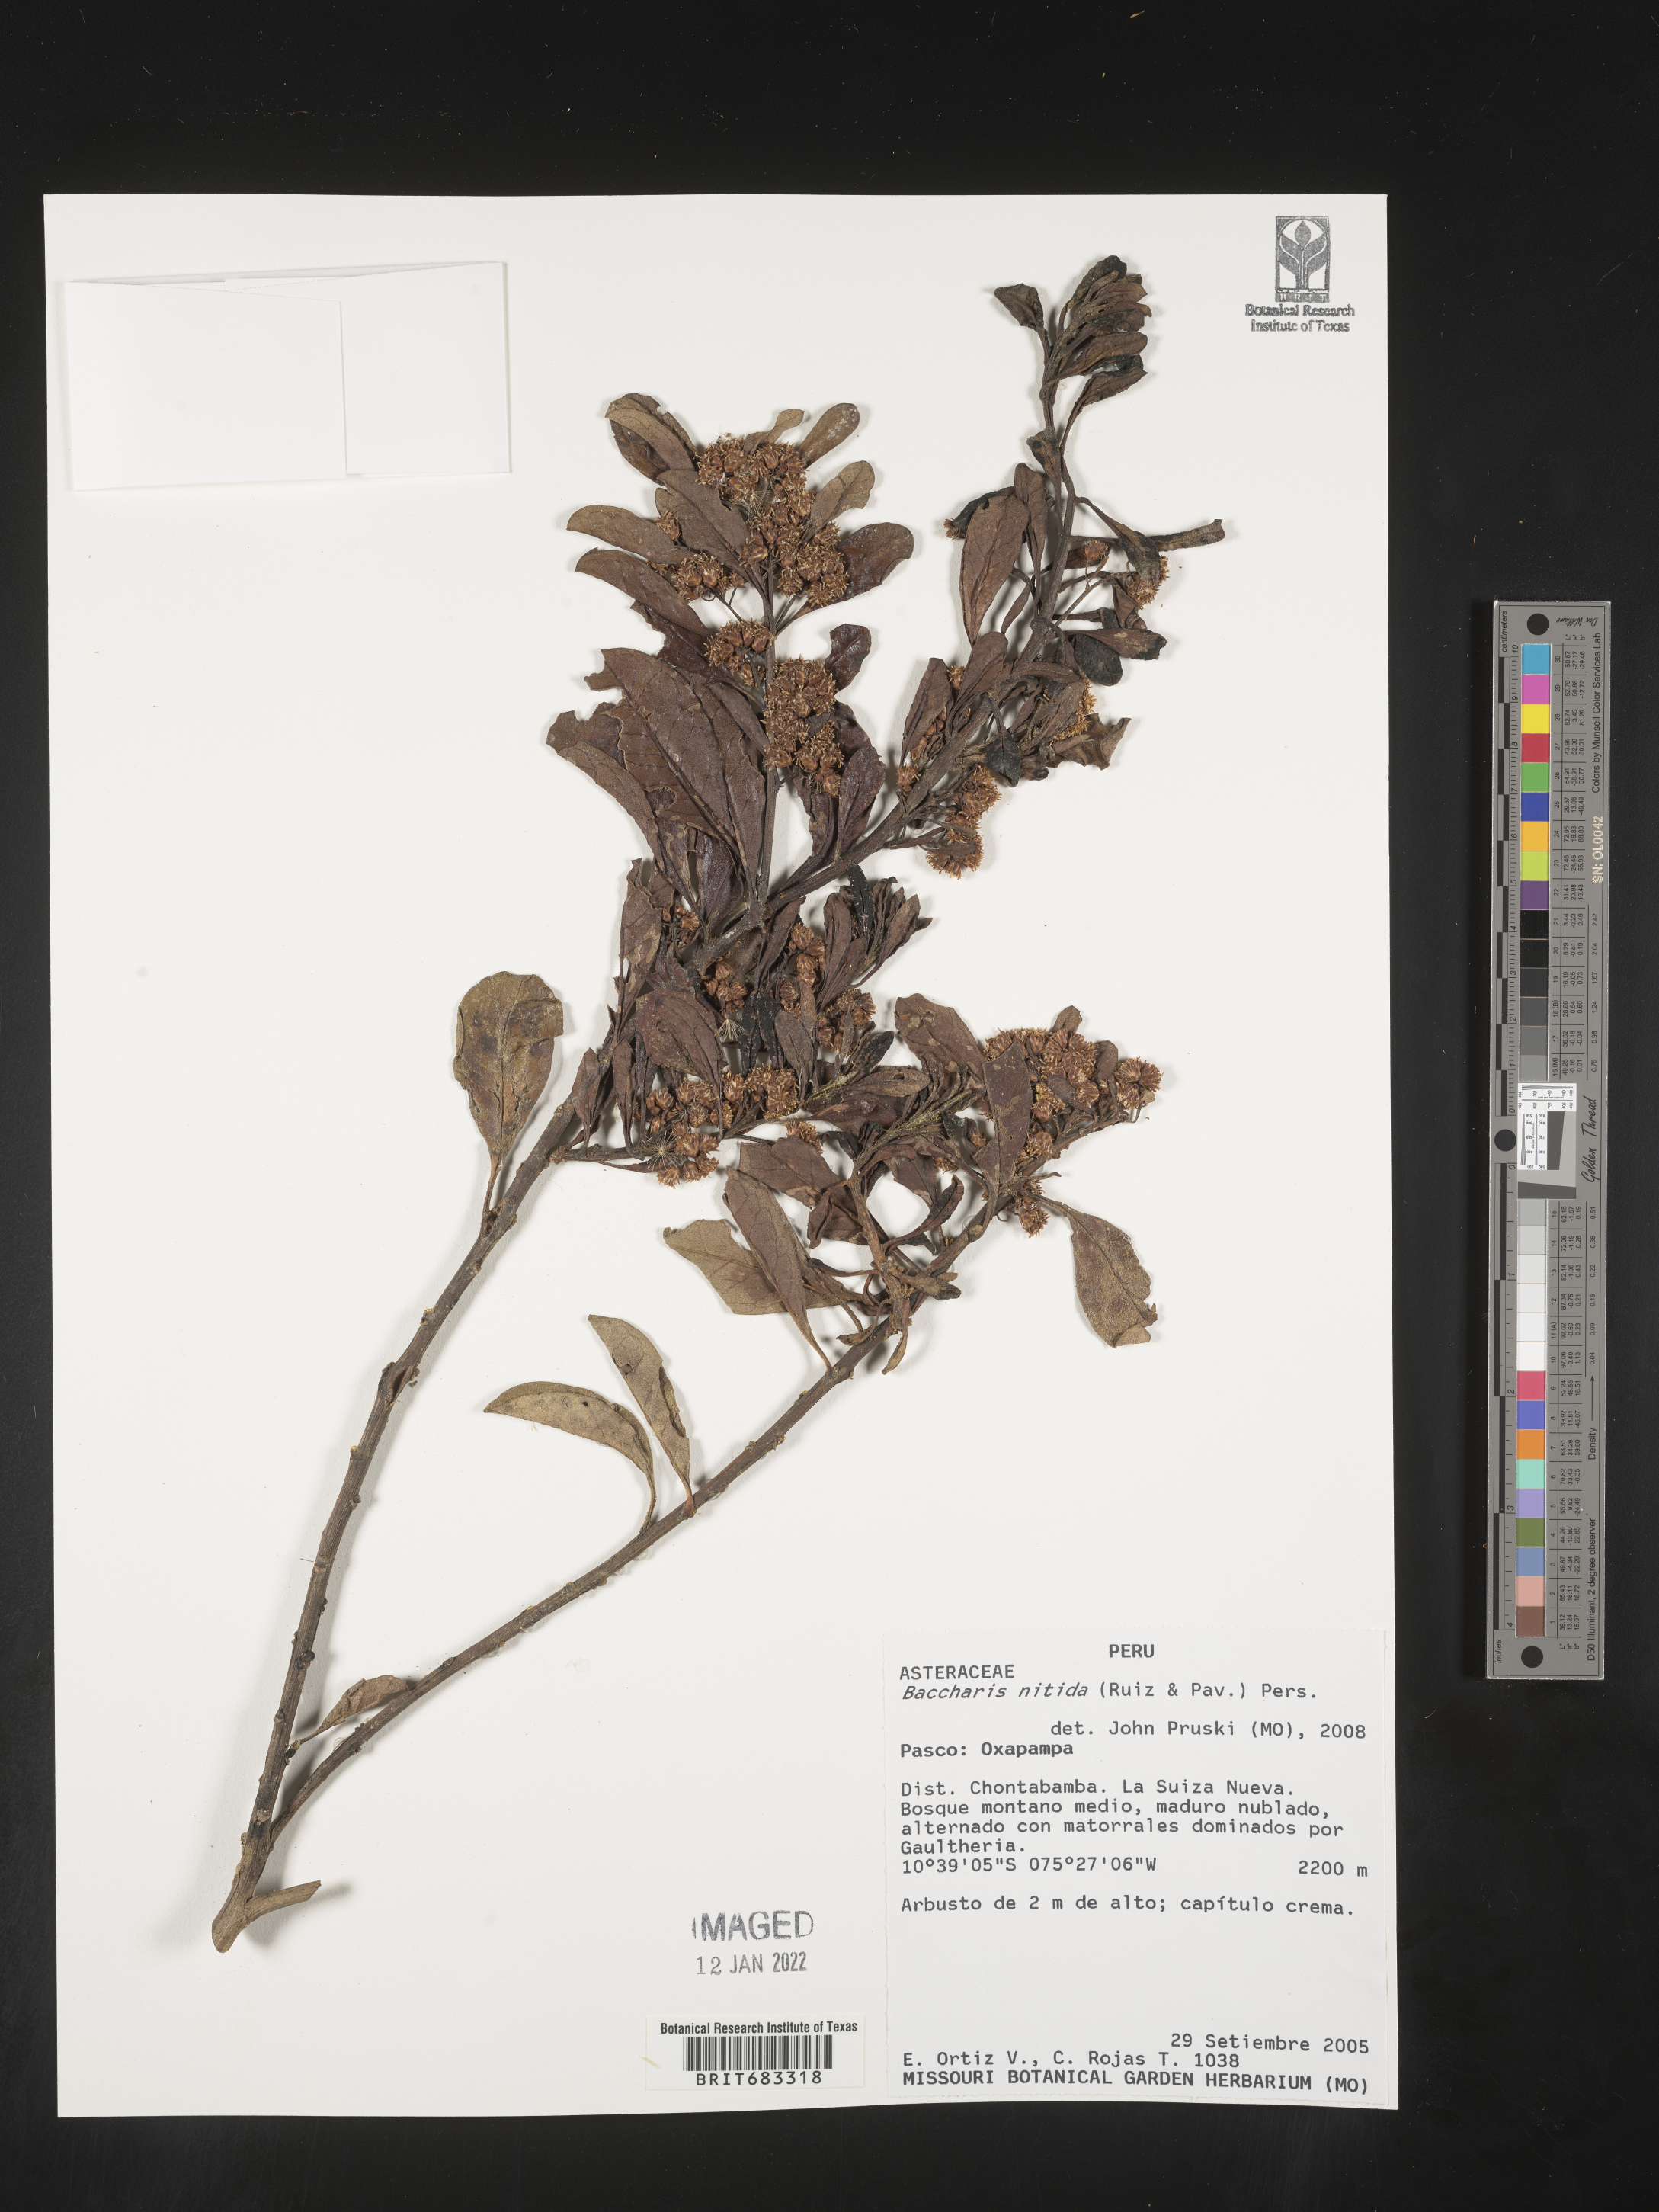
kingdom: Plantae
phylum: Tracheophyta
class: Magnoliopsida
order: Asterales
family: Asteraceae
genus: Baccharis
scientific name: Baccharis
